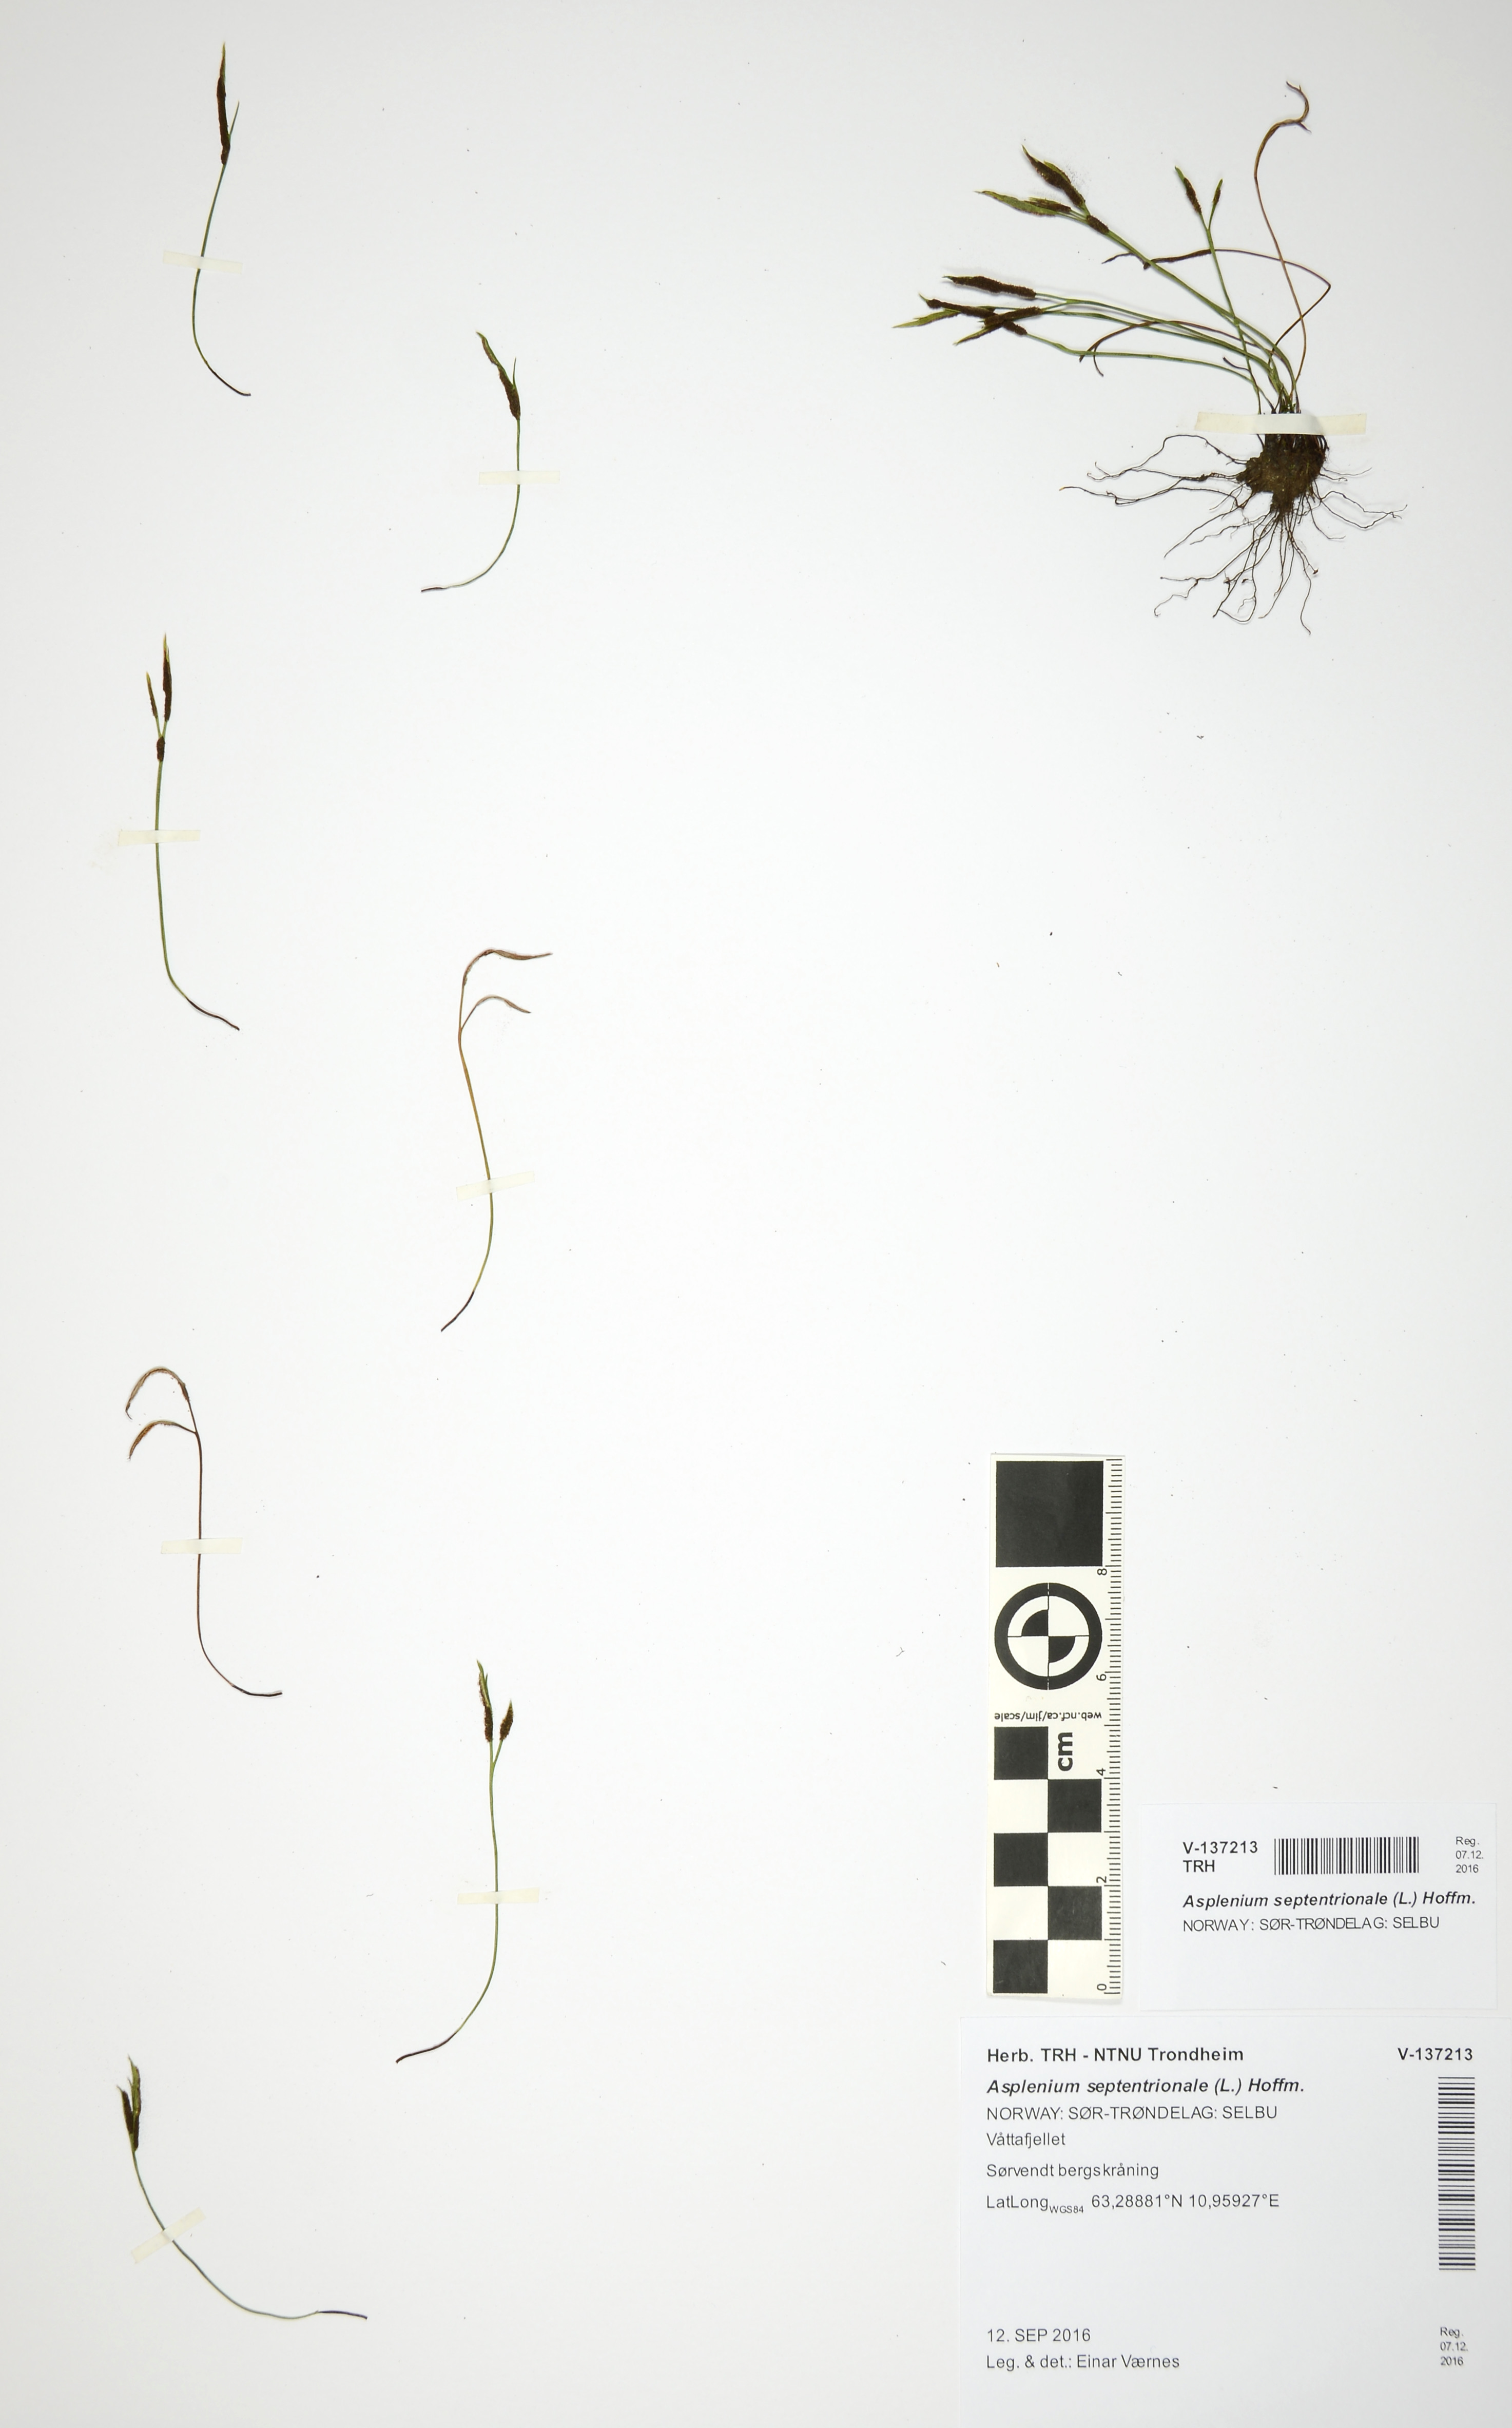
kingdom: Plantae
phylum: Tracheophyta
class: Polypodiopsida
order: Polypodiales
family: Aspleniaceae
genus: Asplenium
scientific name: Asplenium septentrionale
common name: Forked spleenwort
